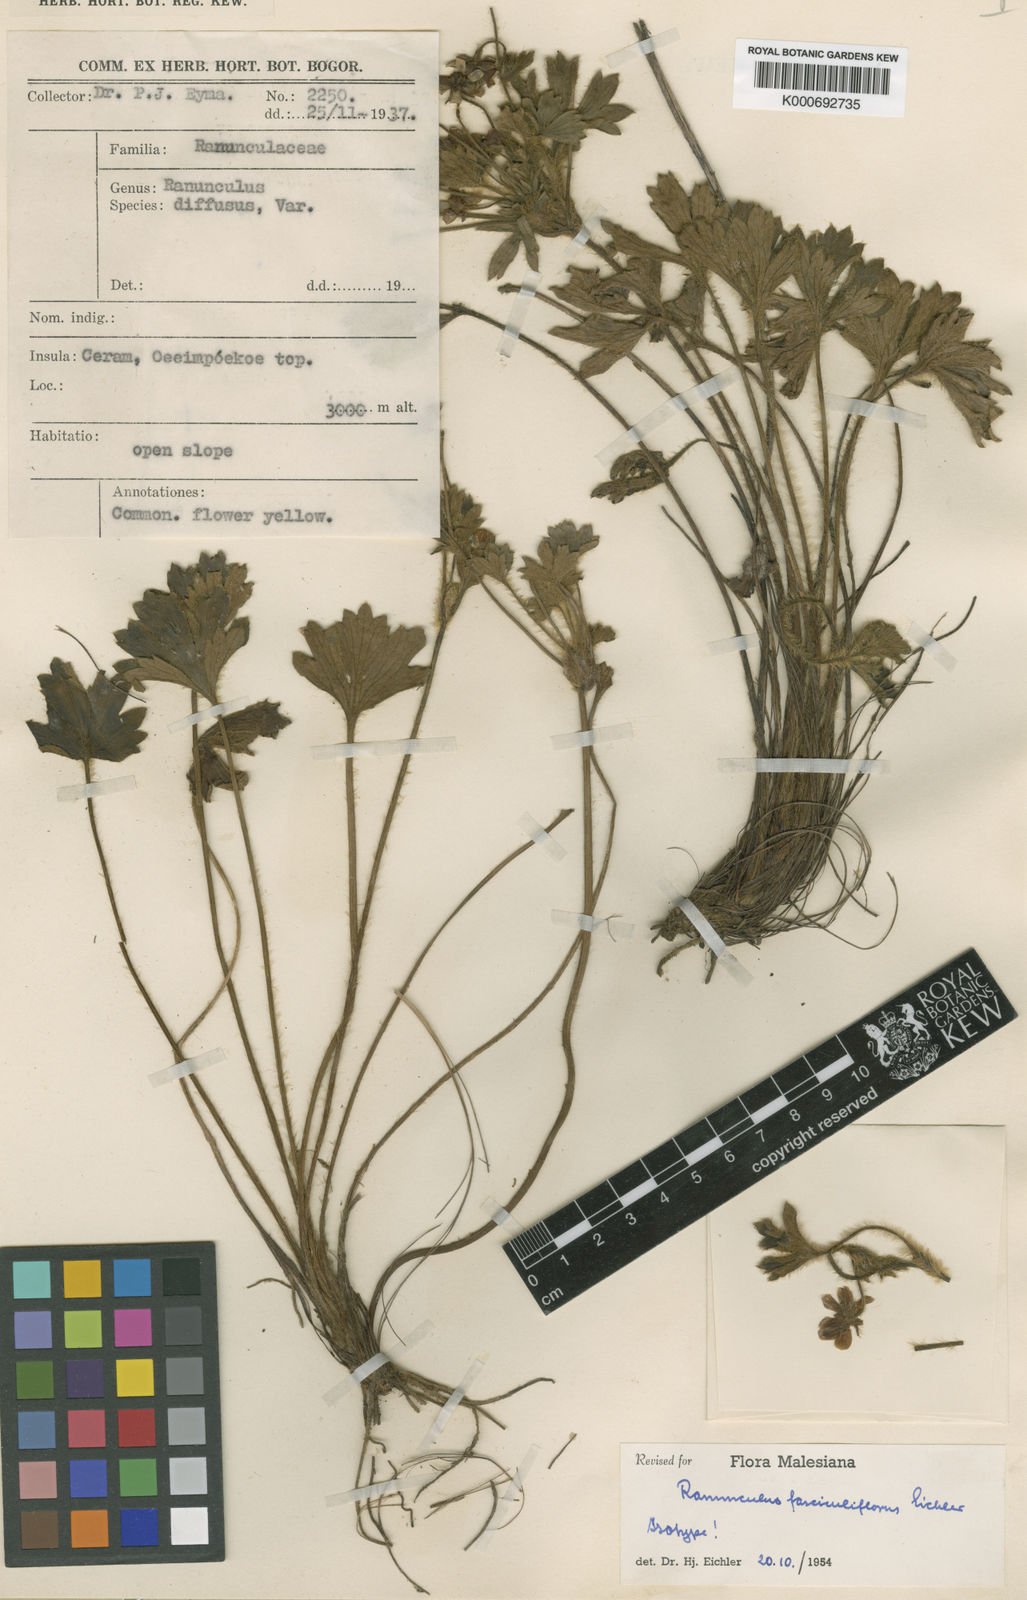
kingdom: Plantae
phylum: Tracheophyta
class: Magnoliopsida
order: Ranunculales
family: Ranunculaceae
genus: Ranunculus
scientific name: Ranunculus fasciculiflorus
